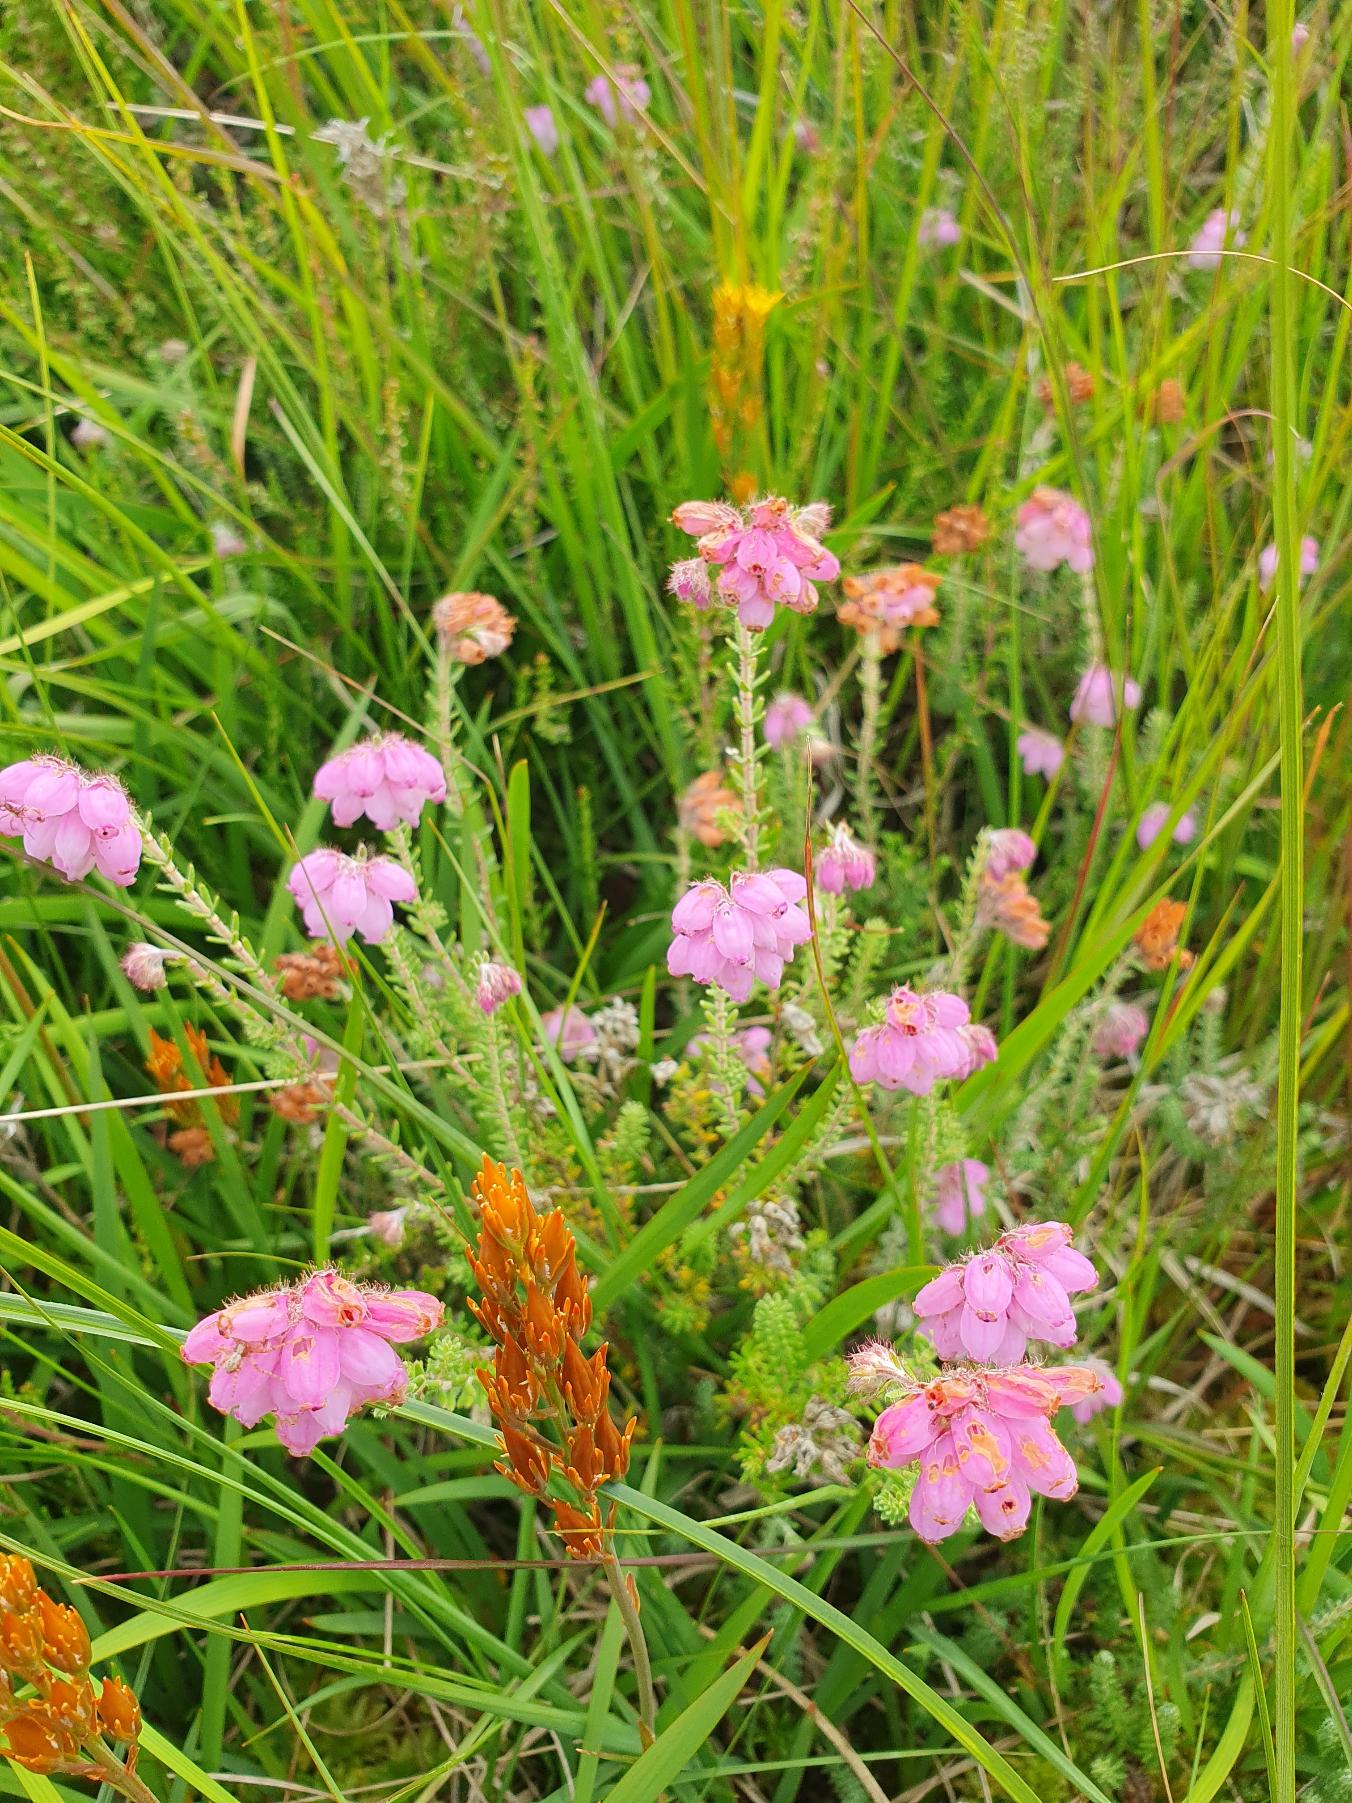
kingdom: Plantae
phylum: Tracheophyta
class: Magnoliopsida
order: Ericales
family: Ericaceae
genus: Erica
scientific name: Erica tetralix
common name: Klokkelyng
